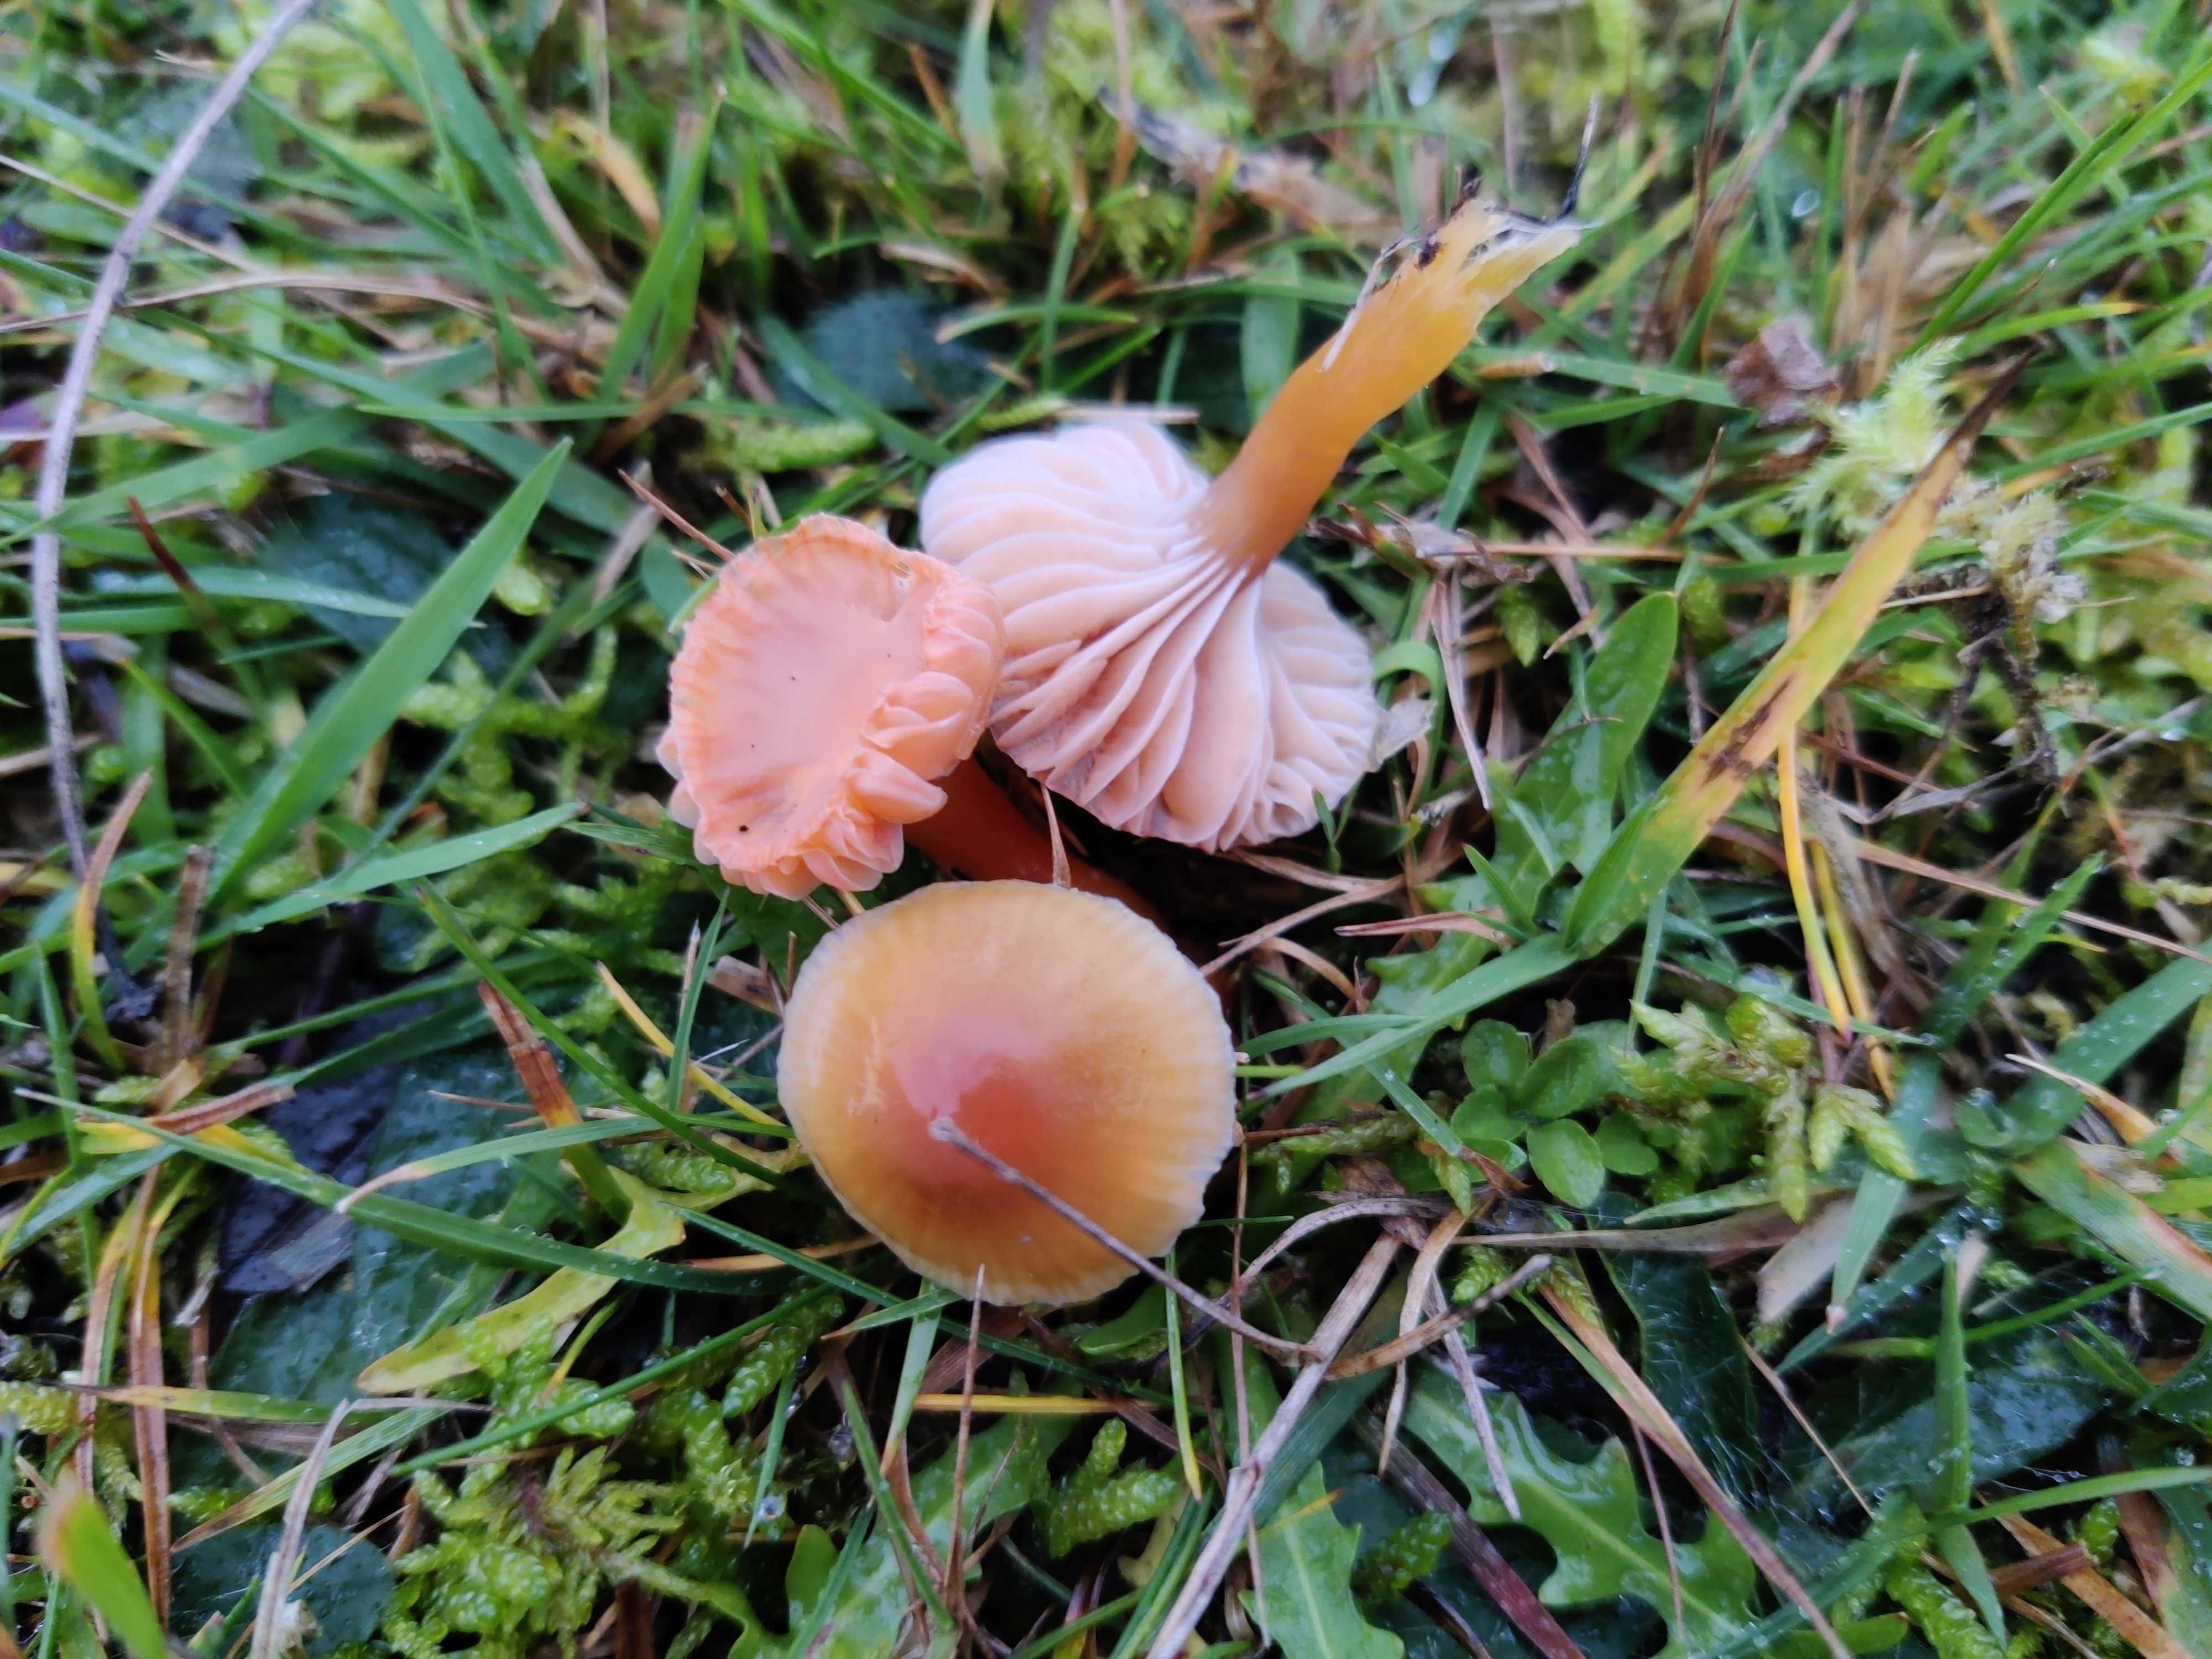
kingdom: Fungi
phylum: Basidiomycota
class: Agaricomycetes
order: Agaricales
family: Hygrophoraceae
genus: Gliophorus
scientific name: Gliophorus laetus
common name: brusk-vokshat
